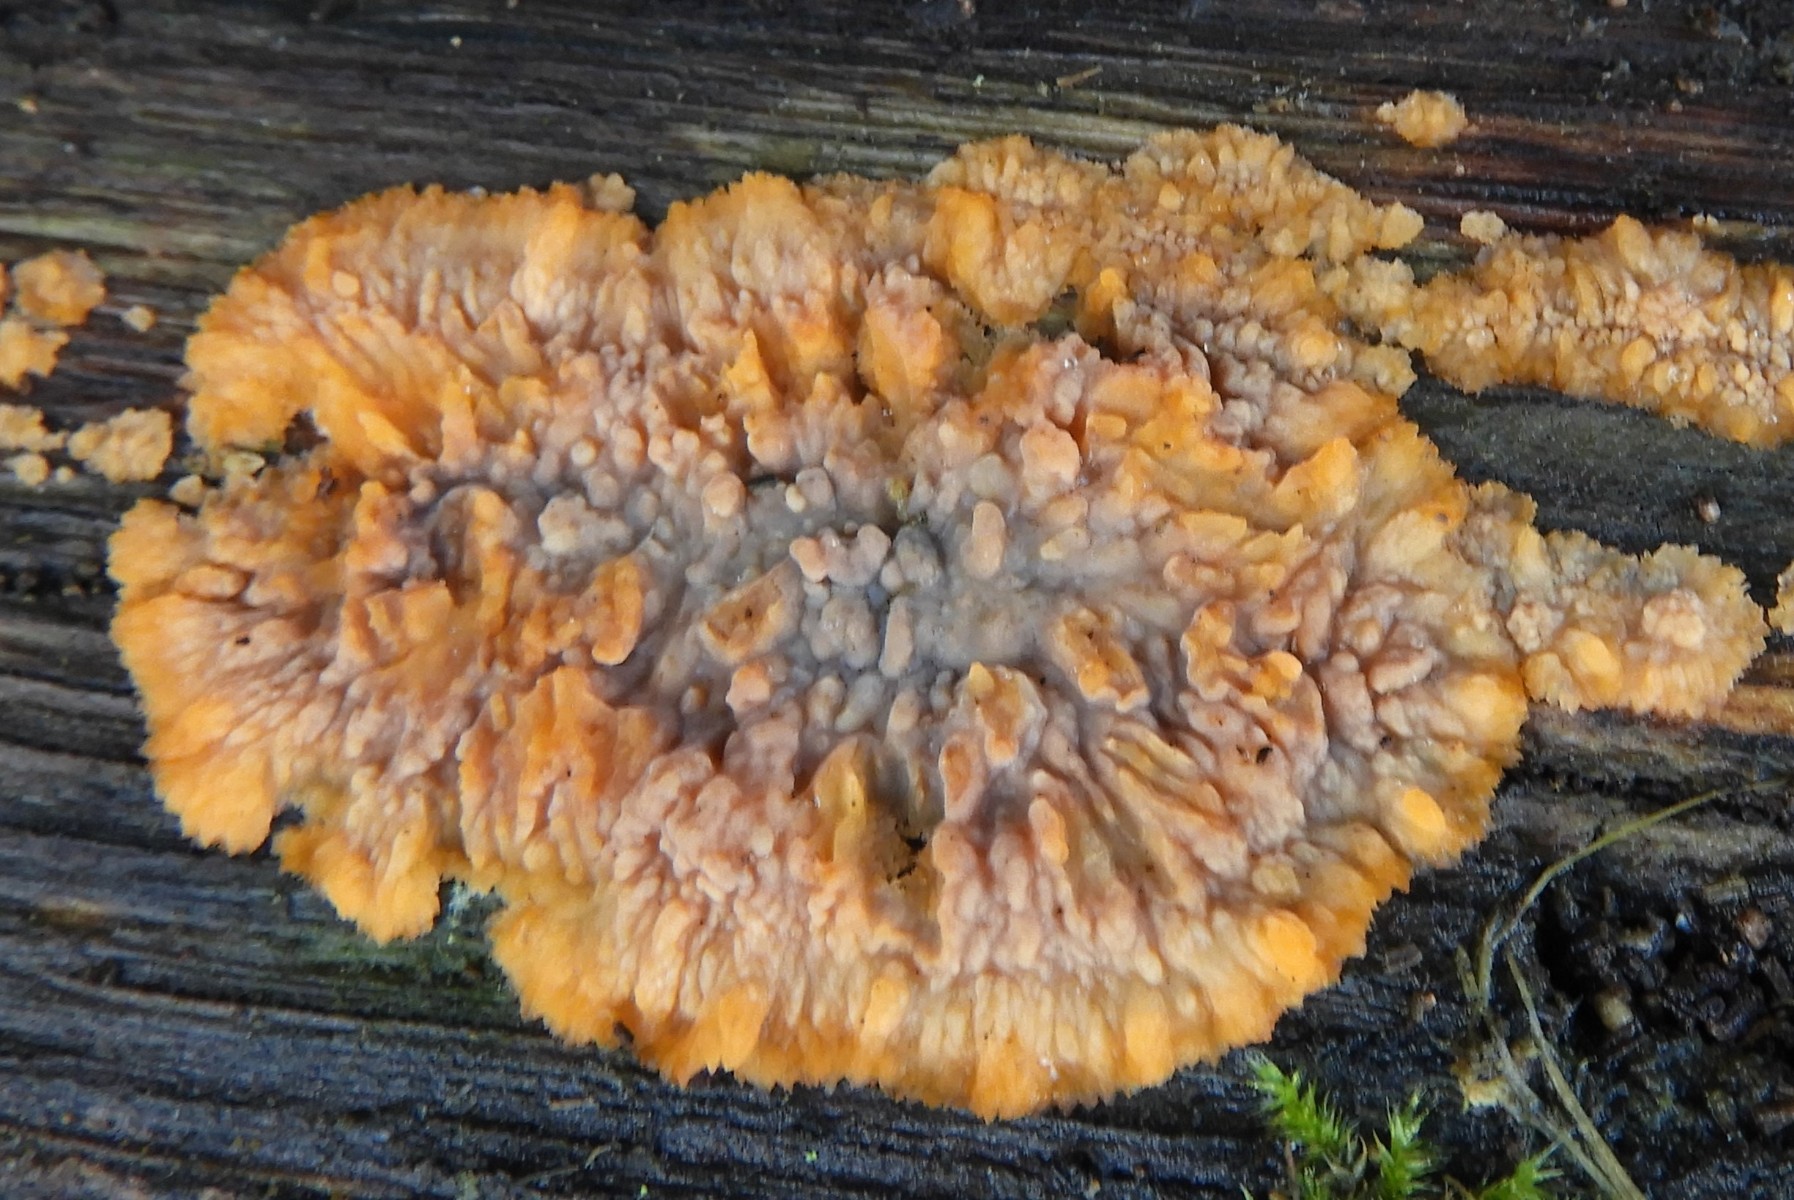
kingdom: Fungi
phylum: Basidiomycota
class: Agaricomycetes
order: Polyporales
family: Meruliaceae
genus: Phlebia
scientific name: Phlebia radiata
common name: stråle-åresvamp
